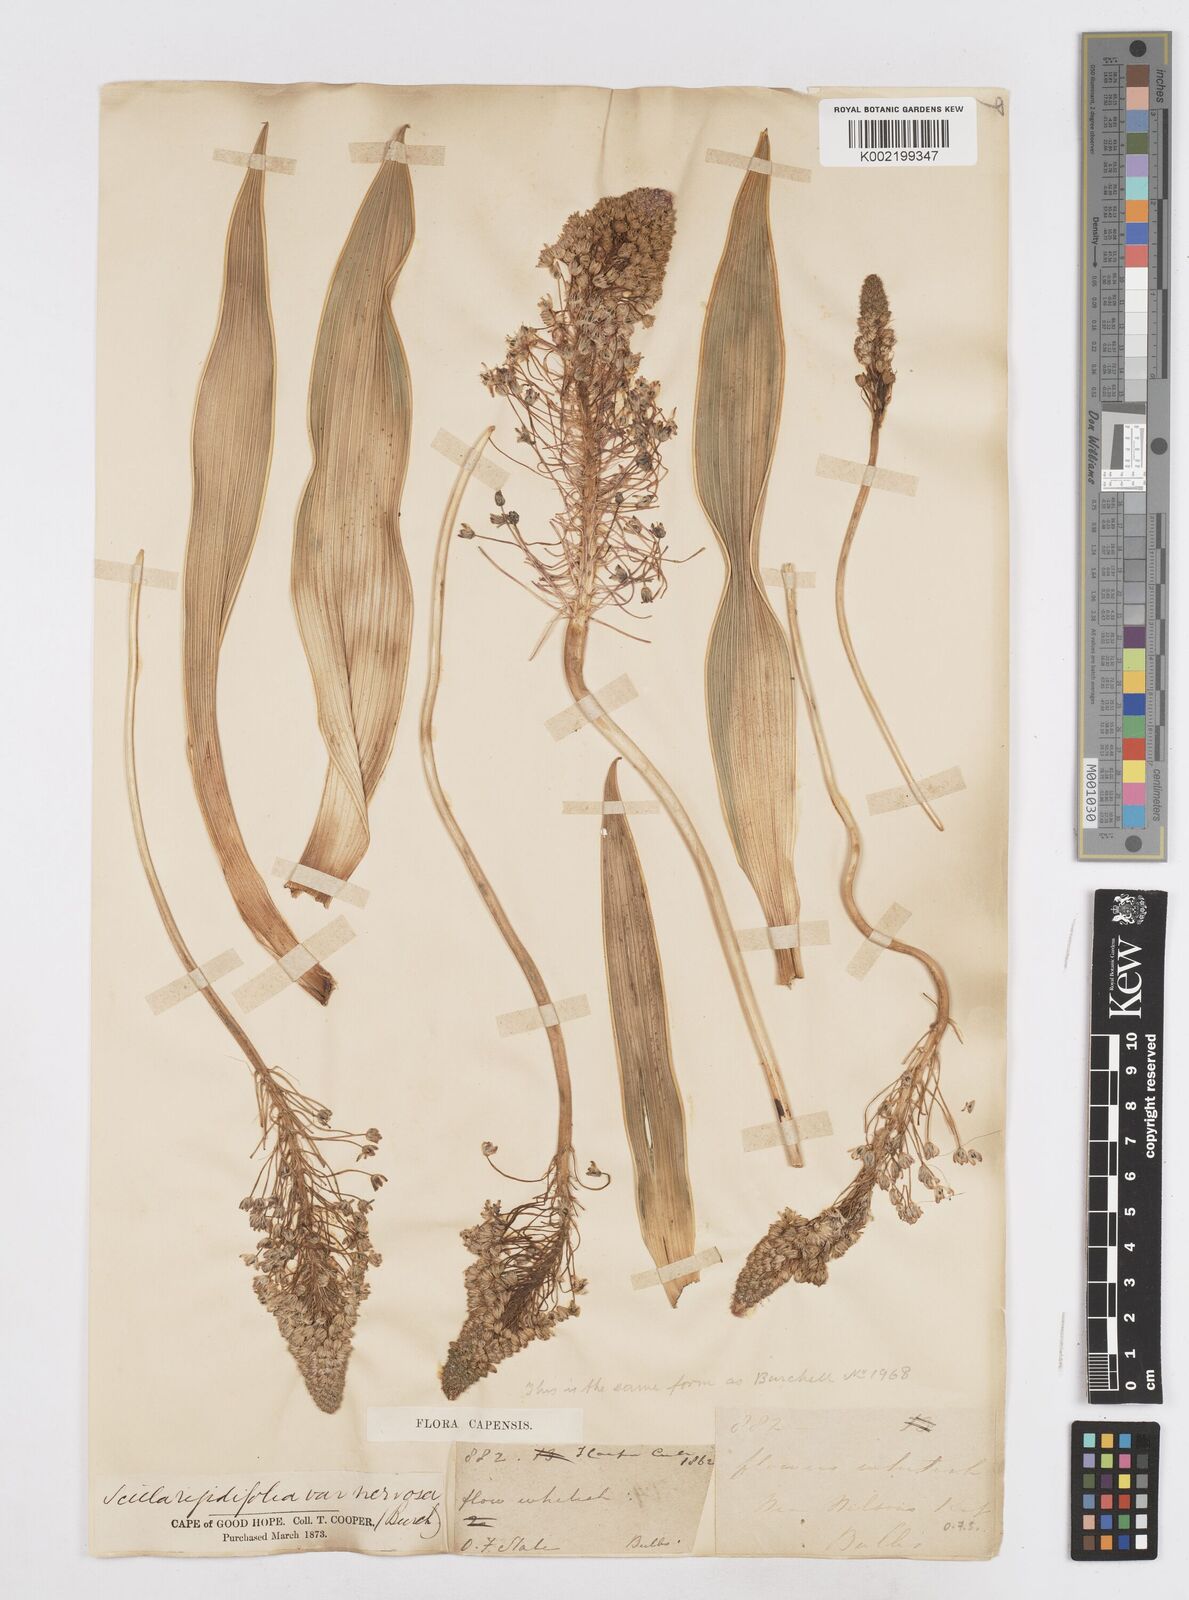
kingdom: Plantae
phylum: Tracheophyta
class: Liliopsida
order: Asparagales
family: Asparagaceae
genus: Schizocarphus
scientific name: Schizocarphus nervosus
